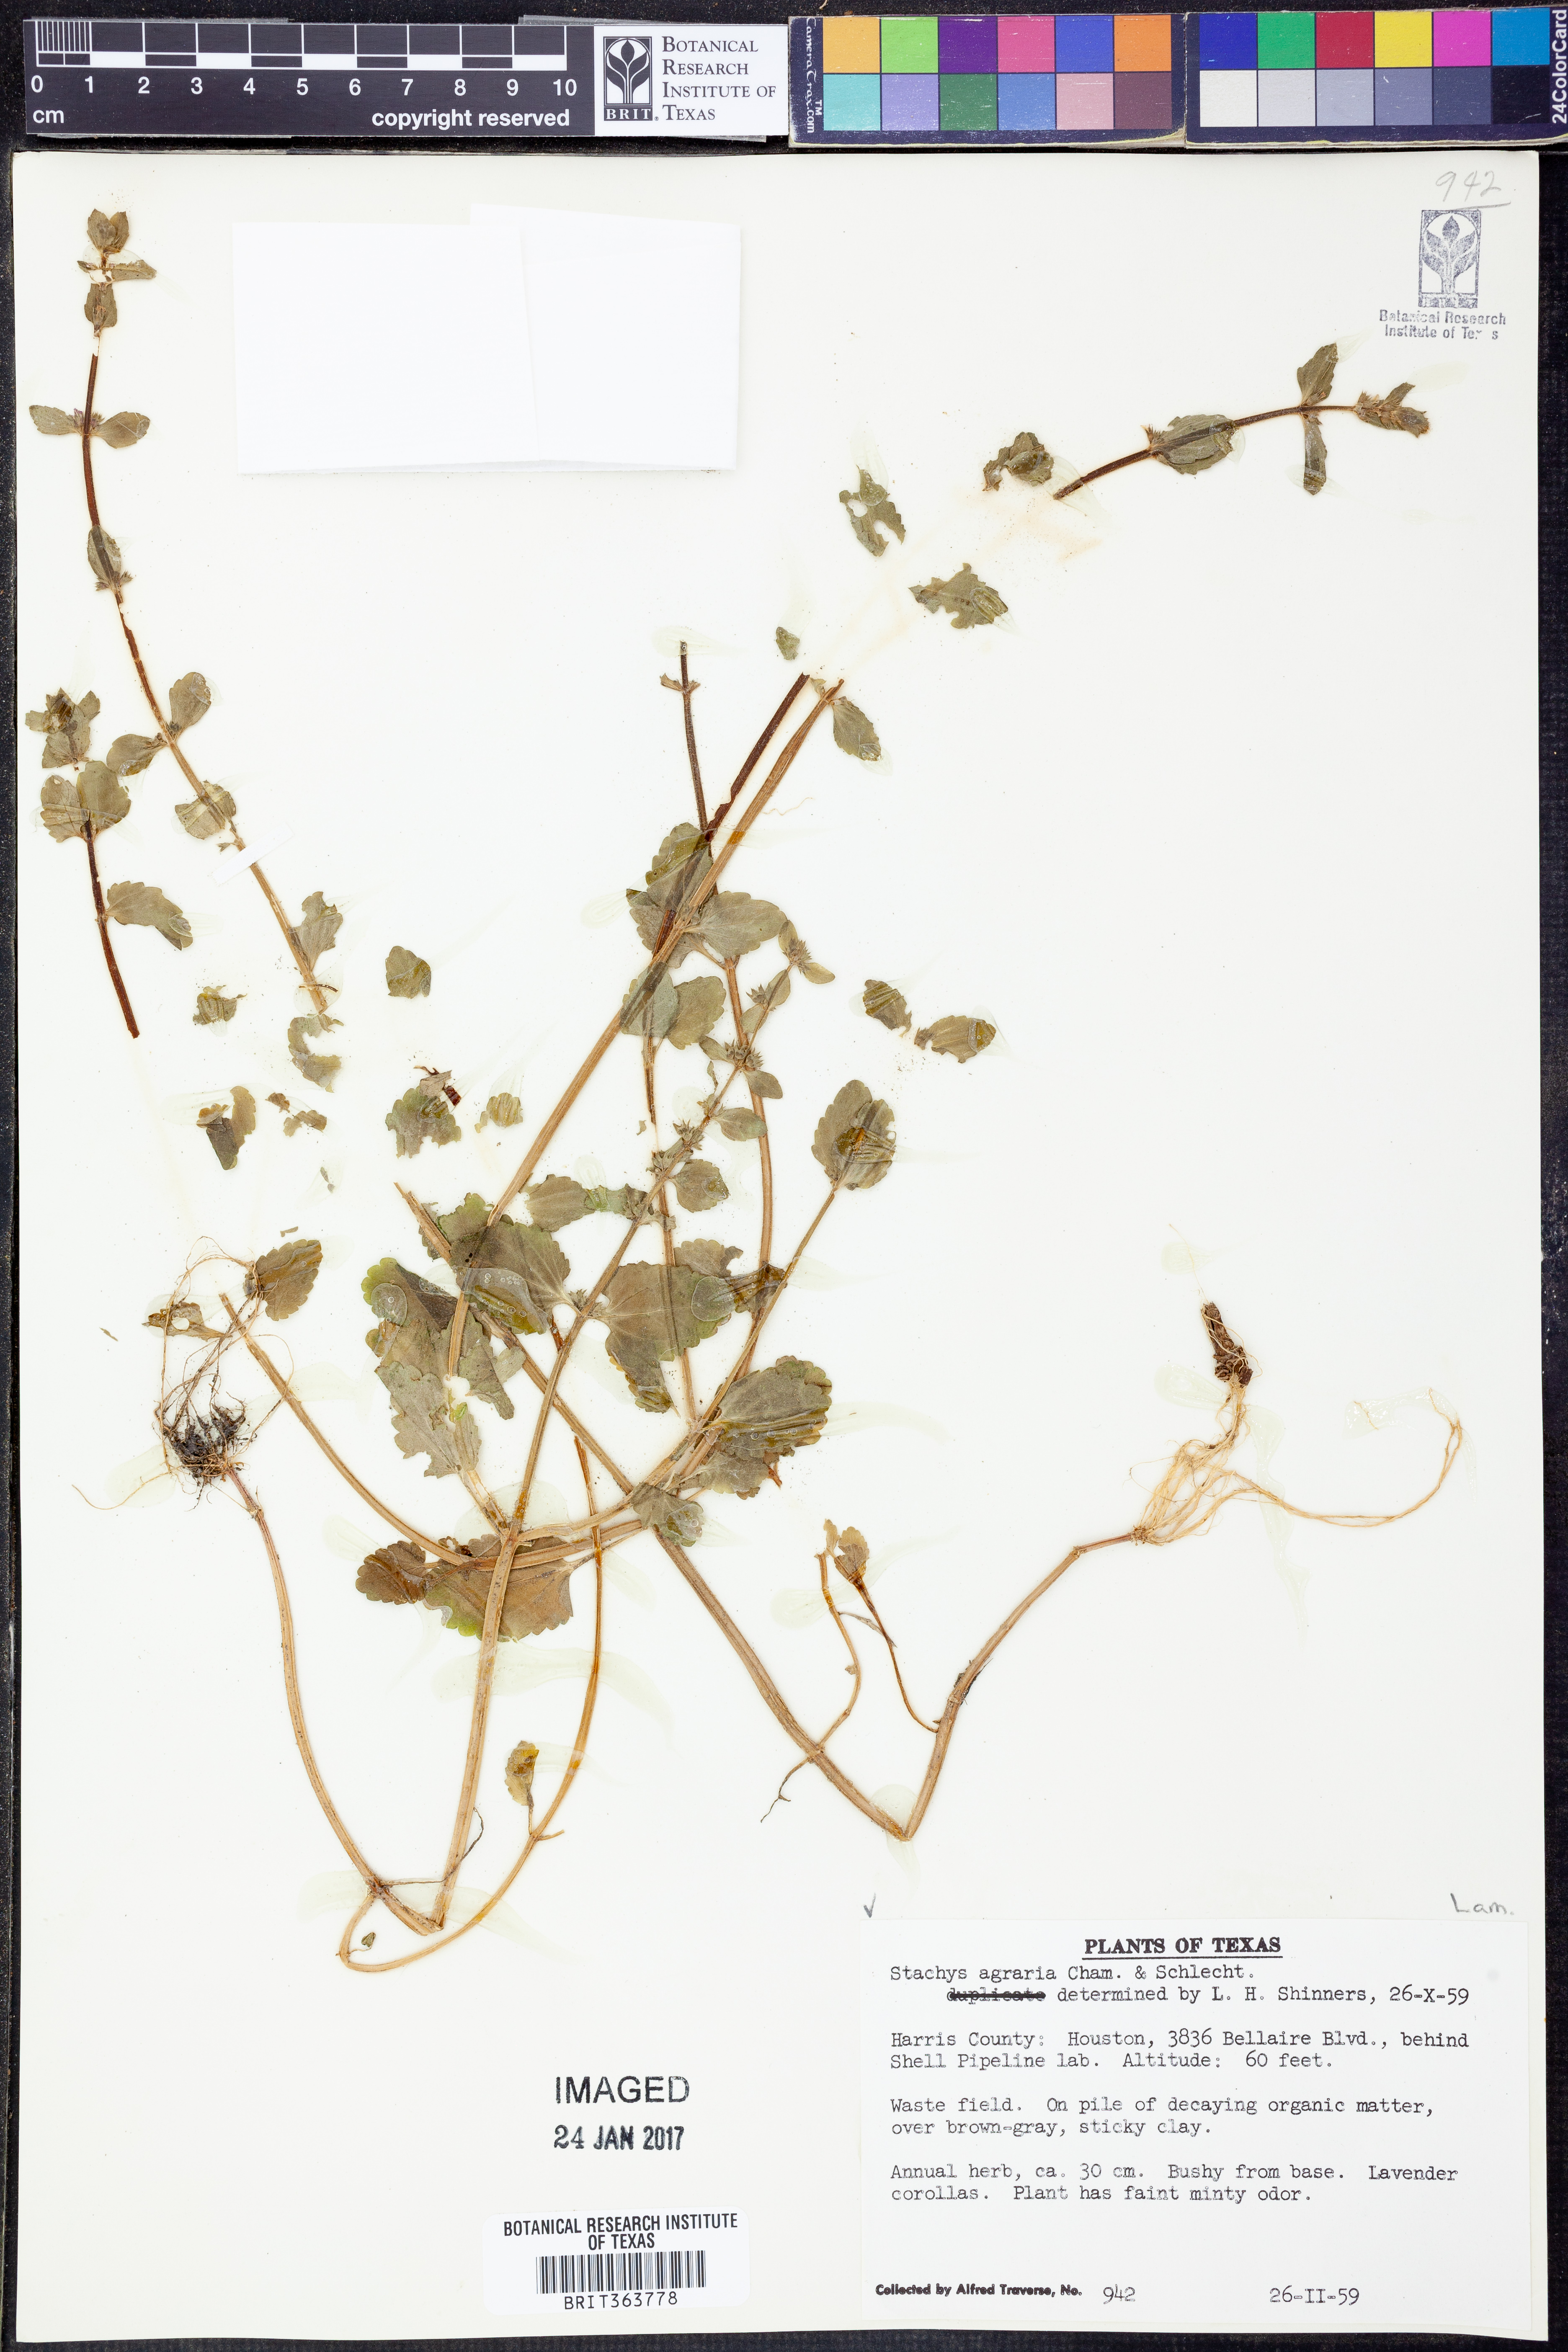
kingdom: Plantae
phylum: Tracheophyta
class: Magnoliopsida
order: Lamiales
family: Lamiaceae
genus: Stachys
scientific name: Stachys agraria
